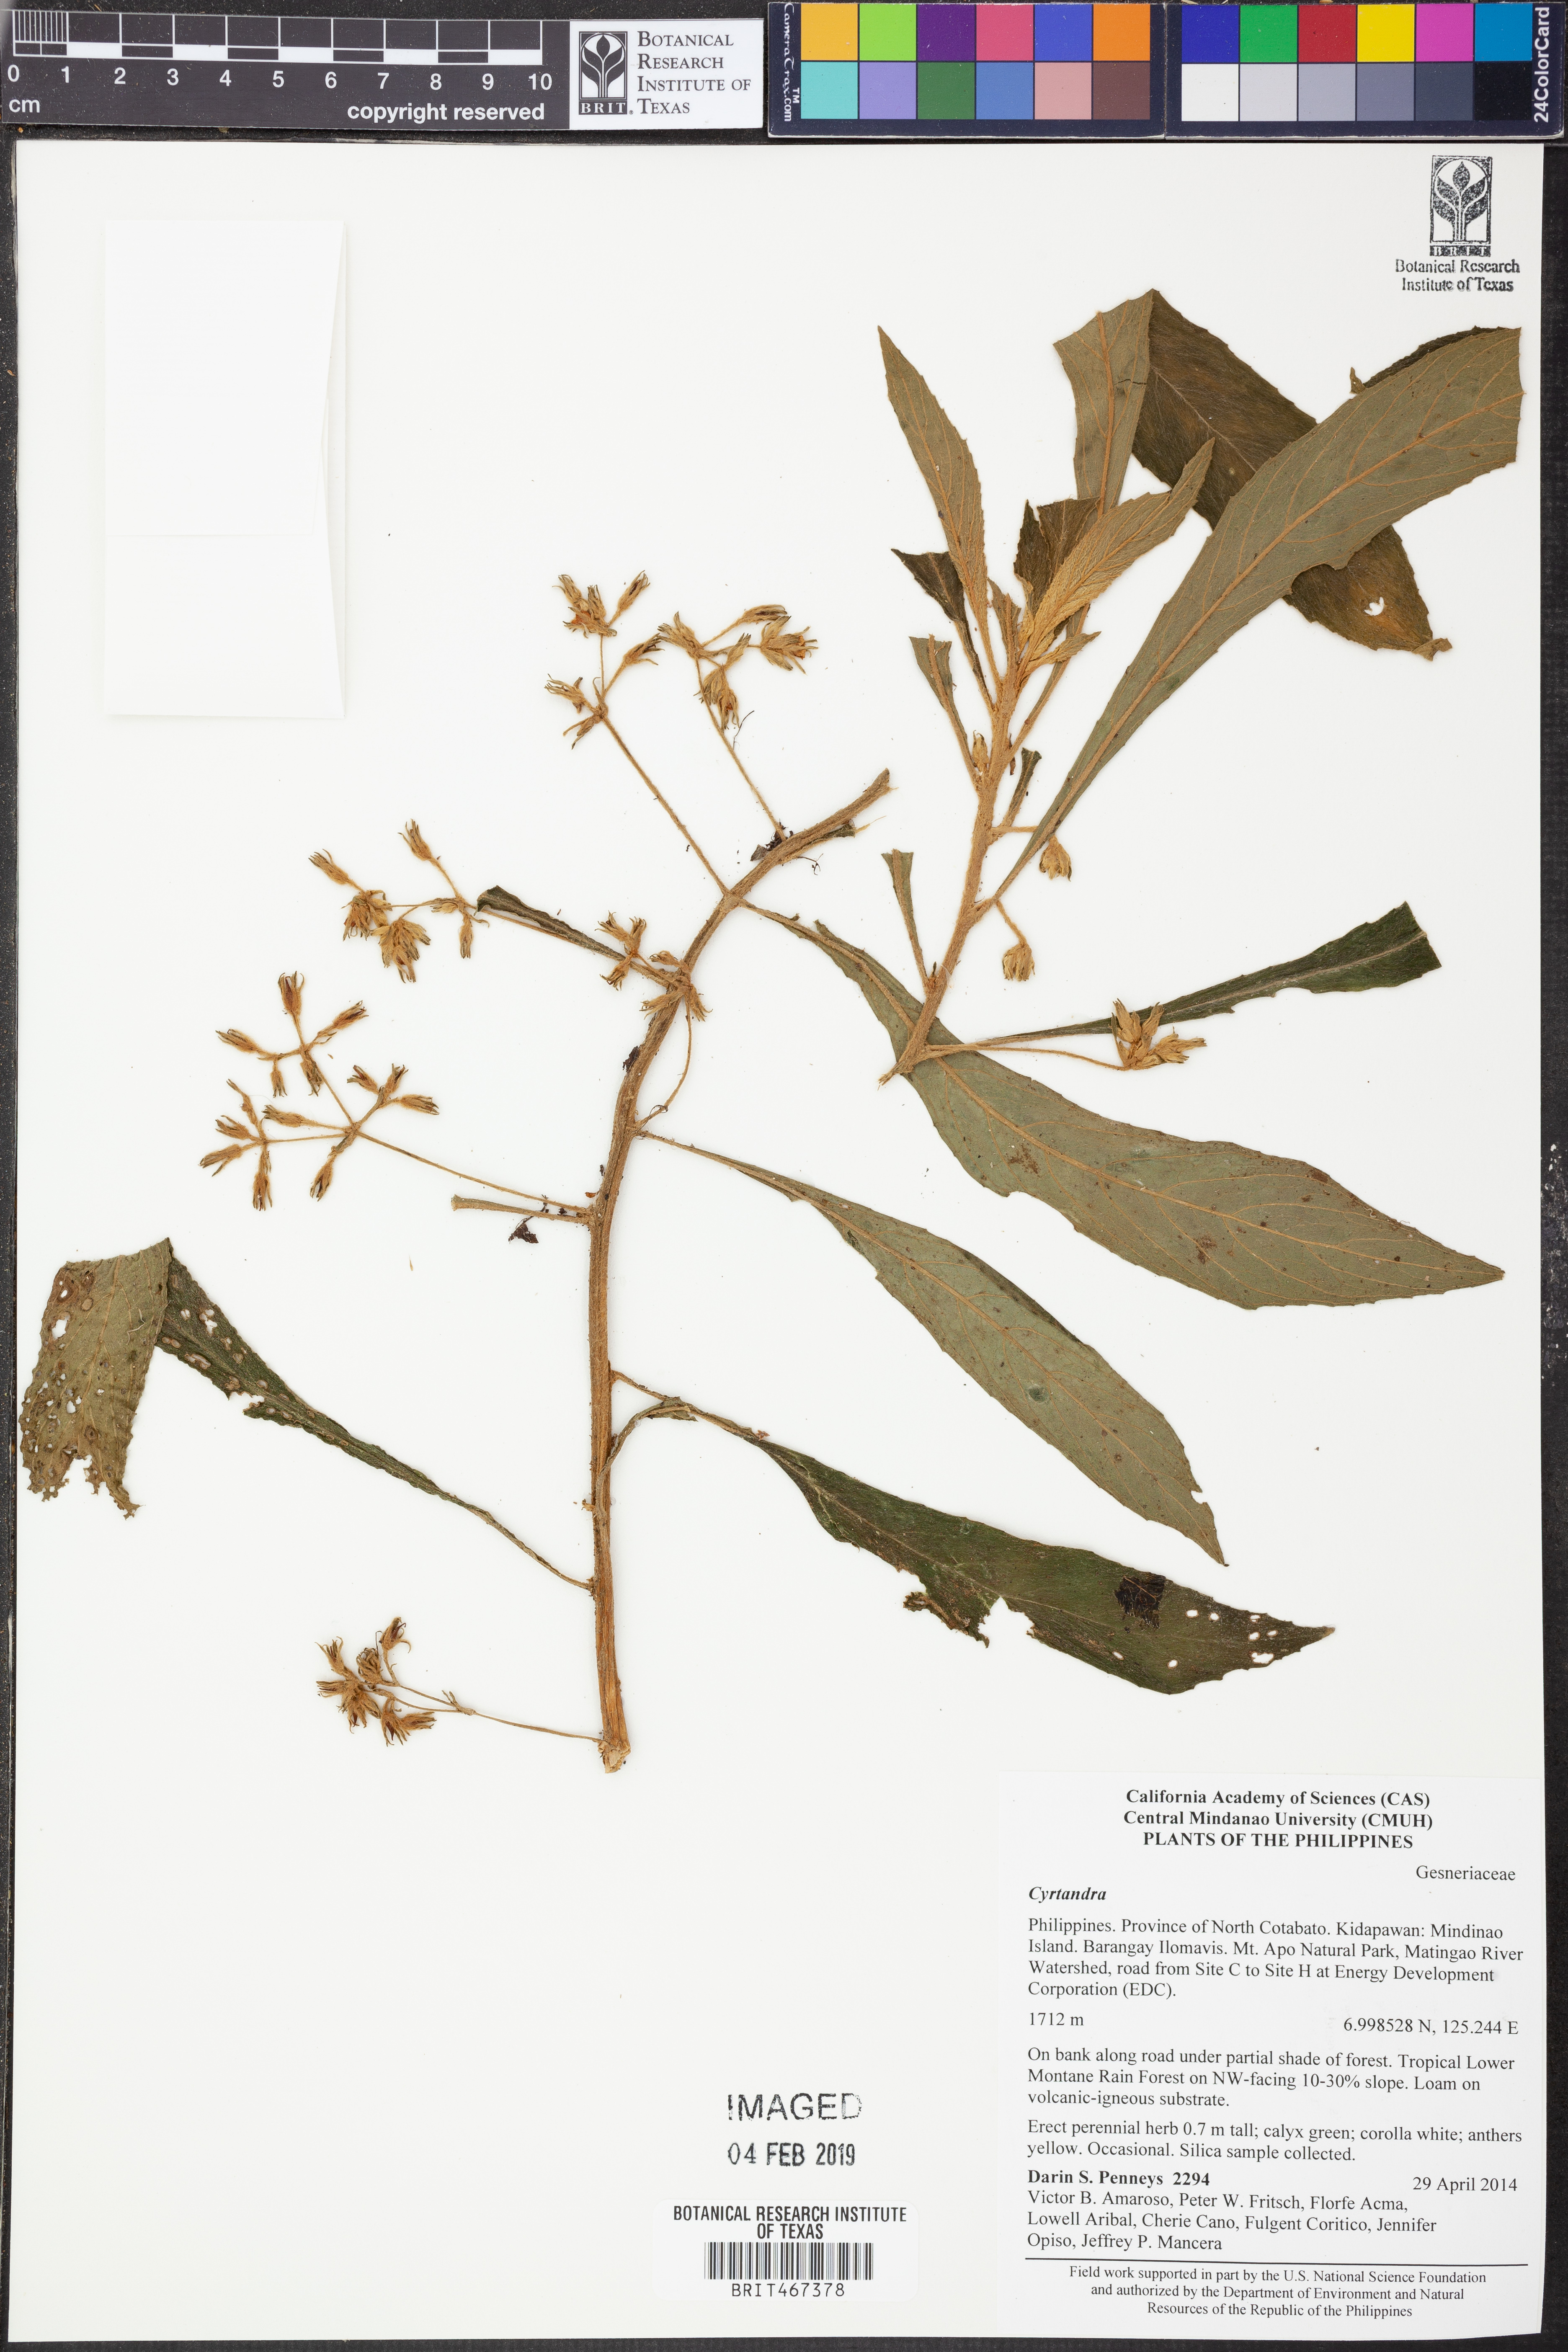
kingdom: Plantae
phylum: Tracheophyta
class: Magnoliopsida
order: Lamiales
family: Gesneriaceae
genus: Cyrtandra
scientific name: Cyrtandra
